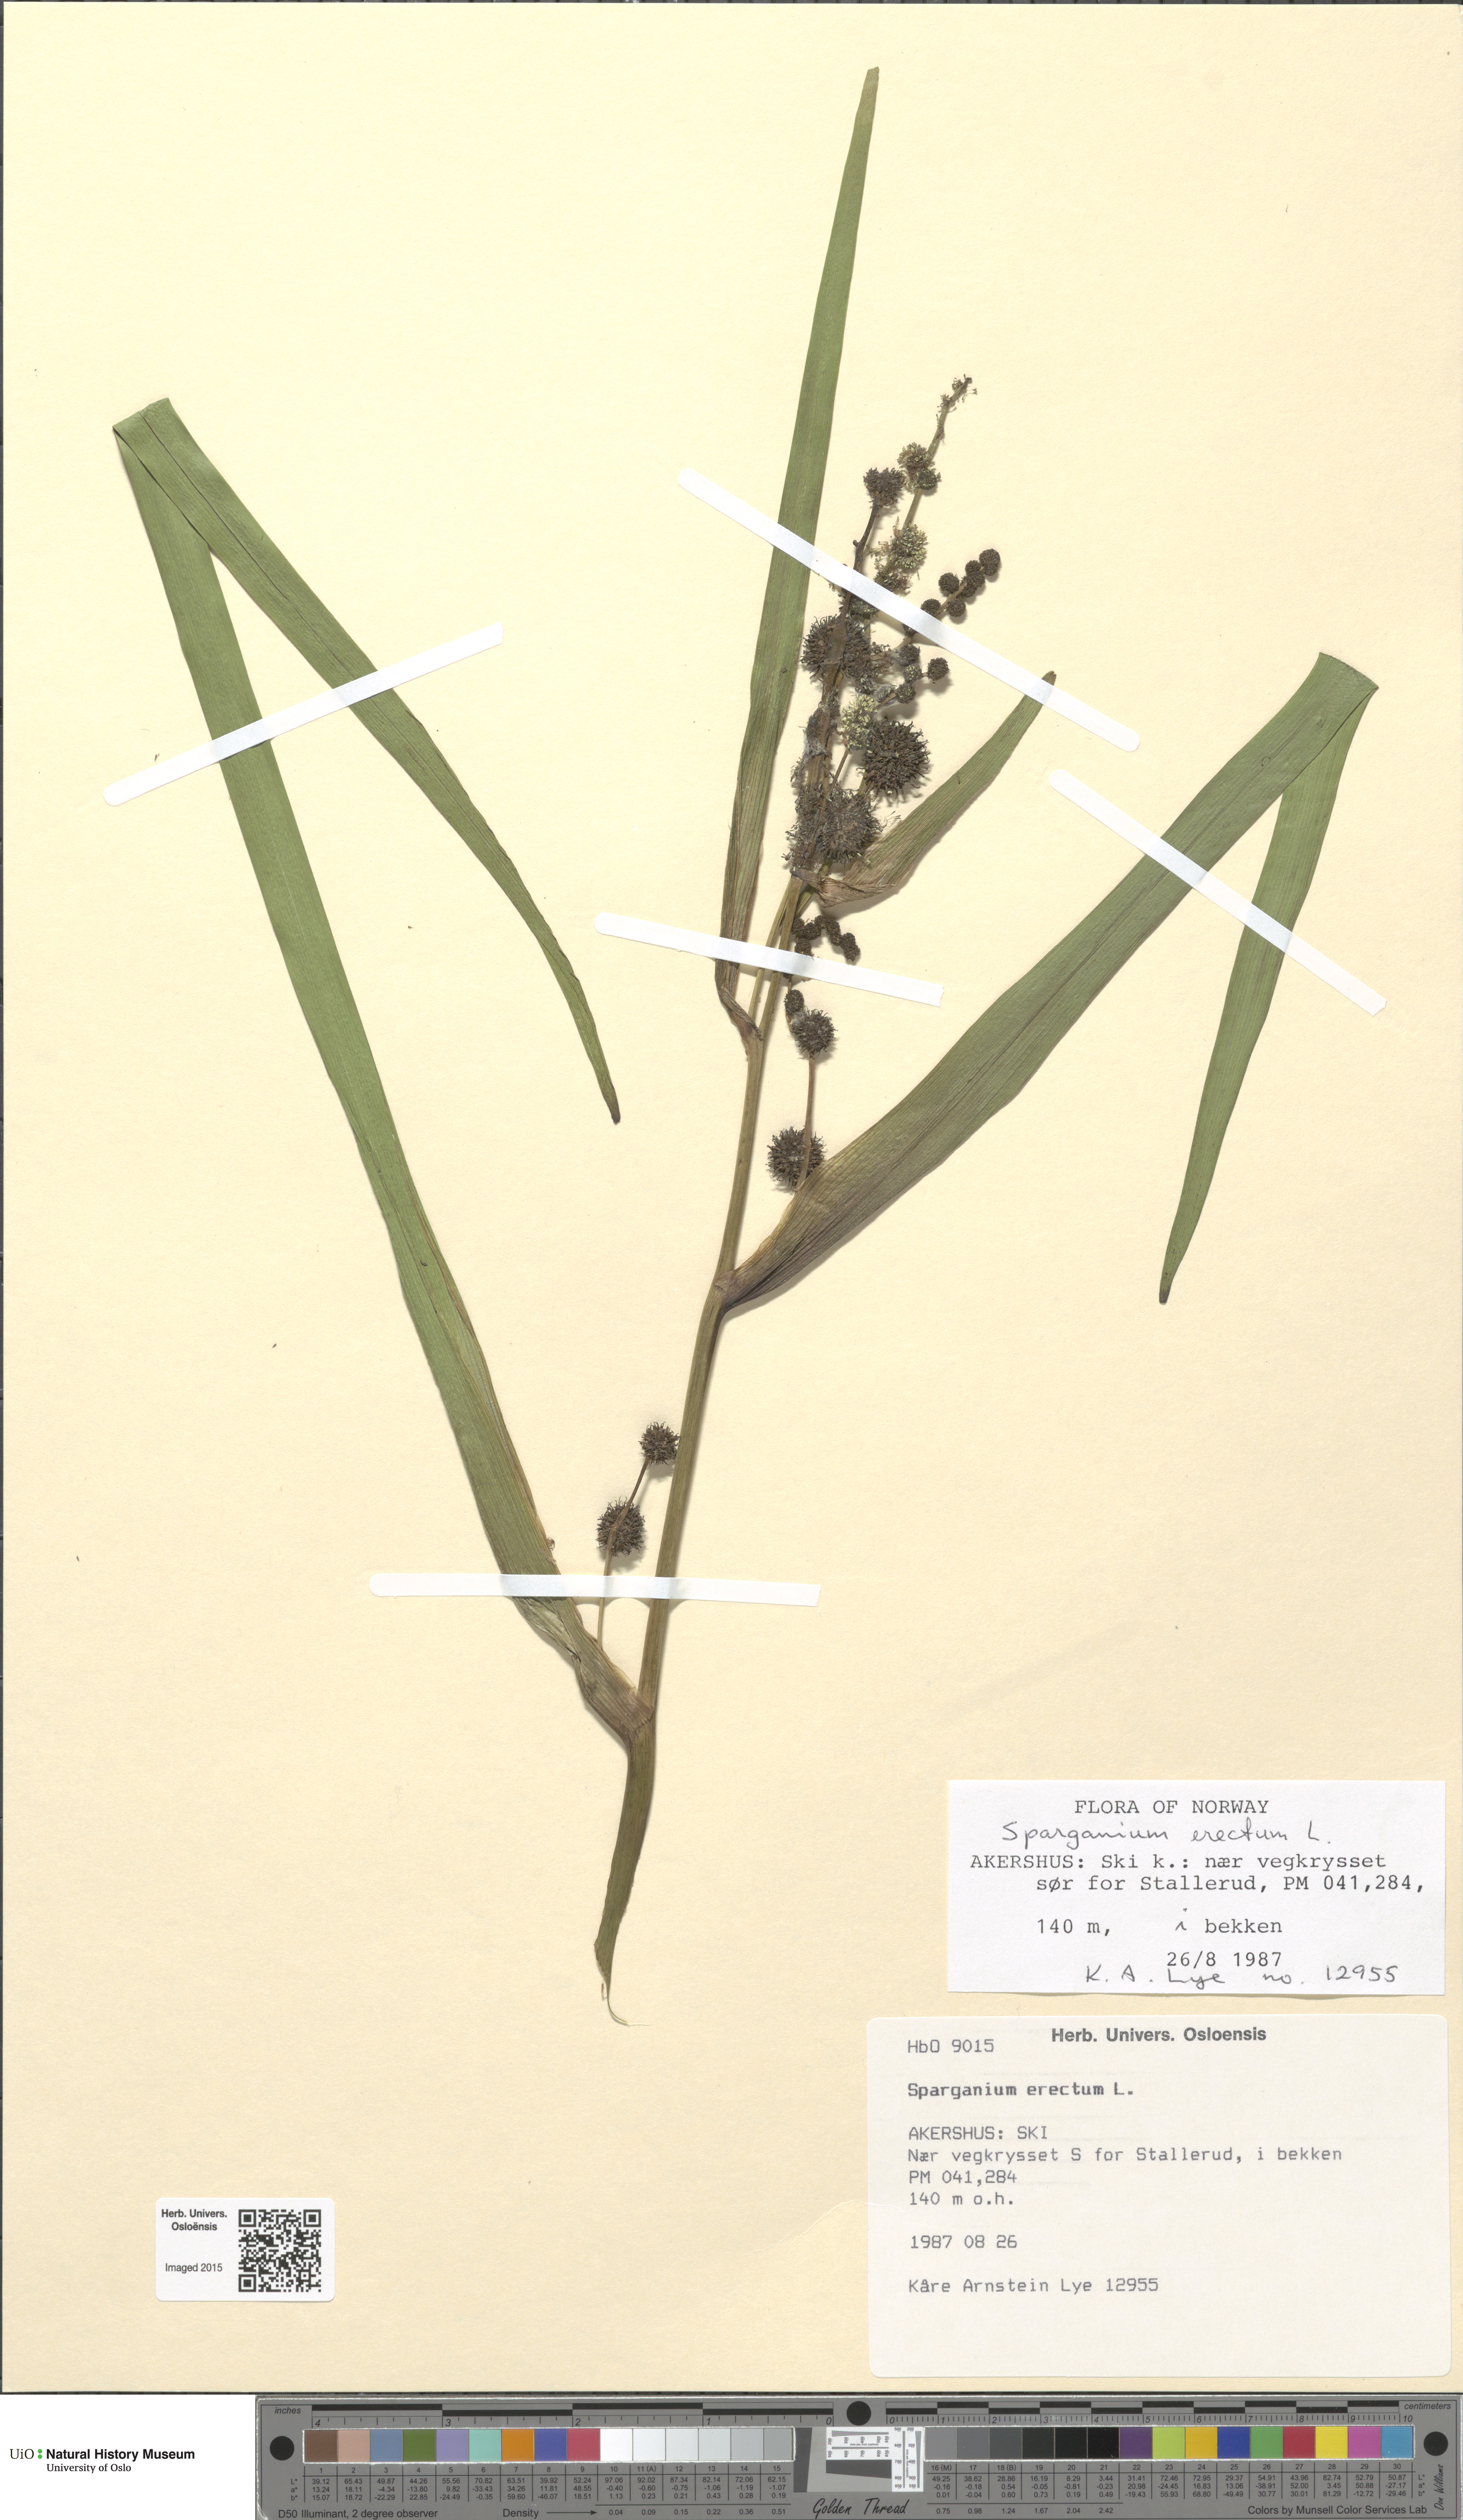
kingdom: Plantae
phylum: Tracheophyta
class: Liliopsida
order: Poales
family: Typhaceae
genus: Sparganium
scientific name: Sparganium erectum
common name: Branched bur-reed
